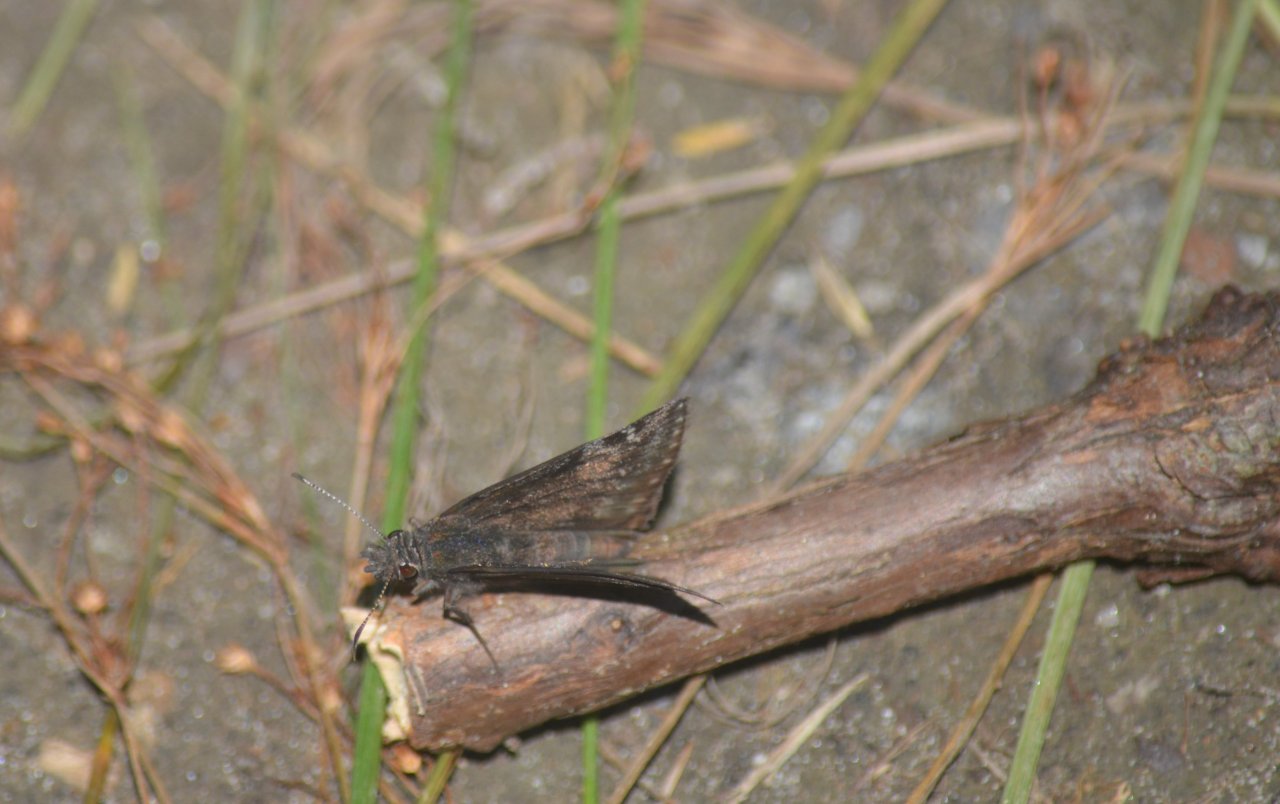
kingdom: Animalia
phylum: Arthropoda
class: Insecta
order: Lepidoptera
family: Hesperiidae
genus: Gesta
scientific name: Gesta
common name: Wild Indigo Duskywing
